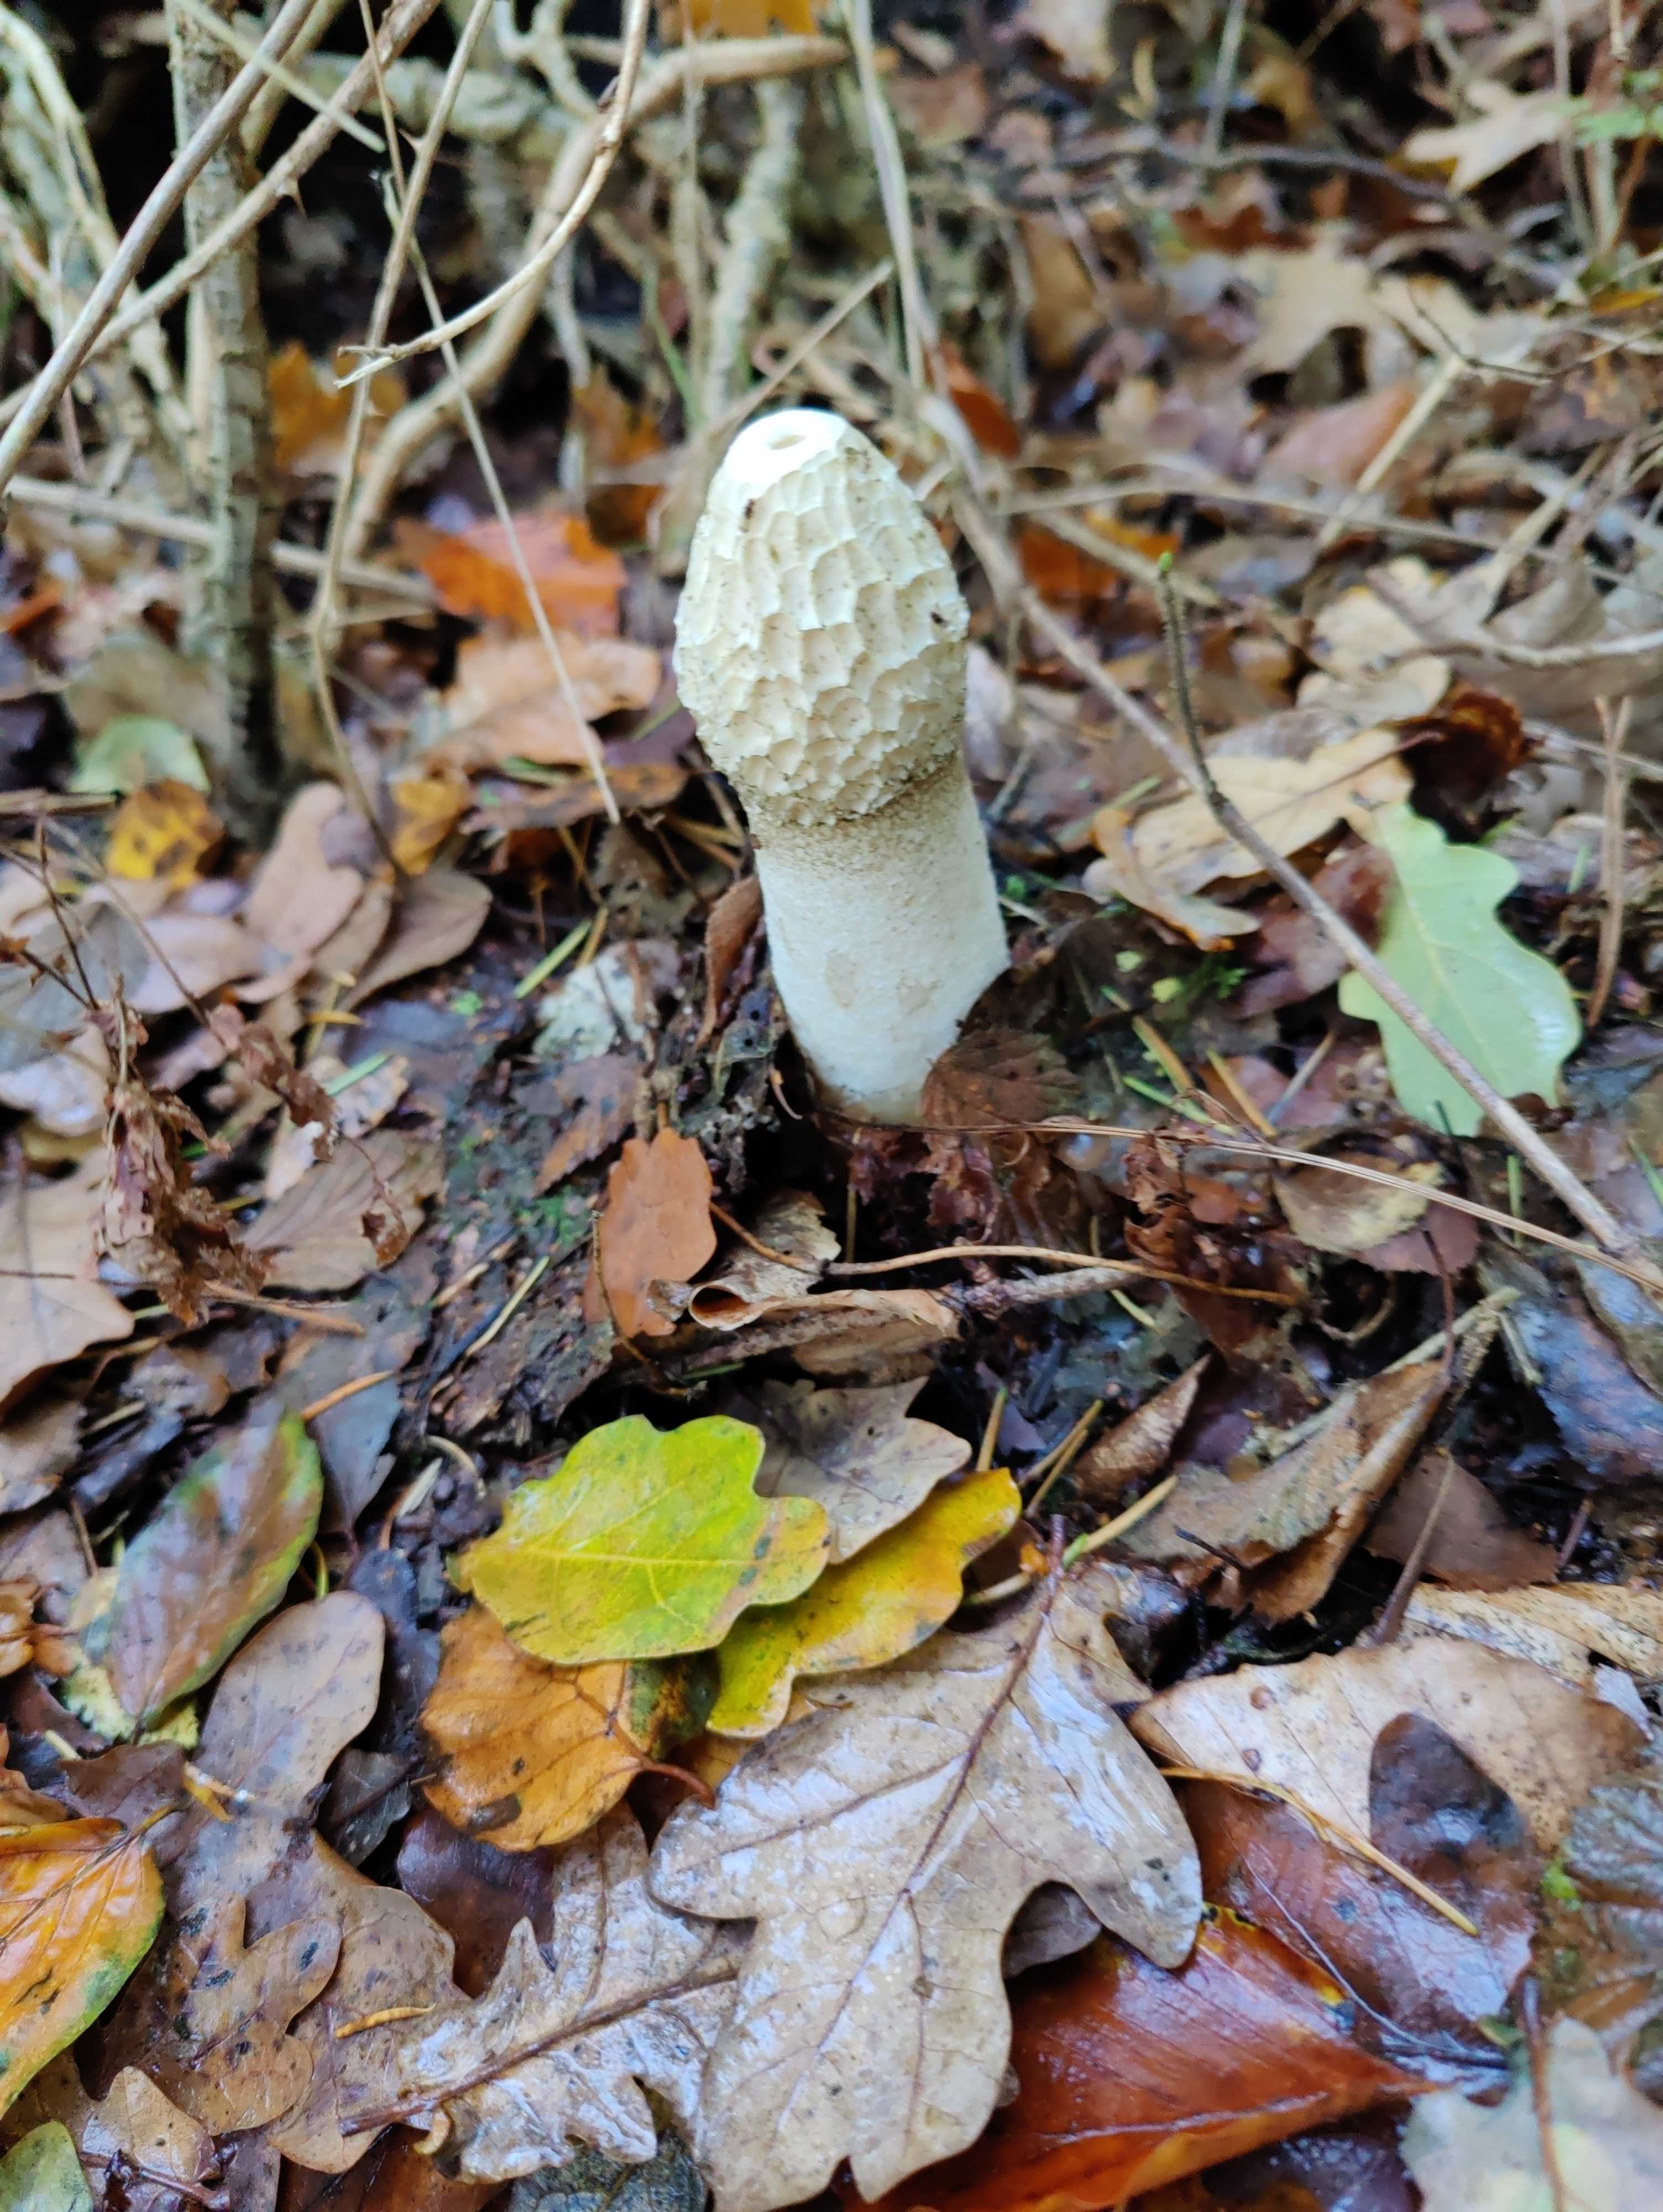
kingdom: Fungi
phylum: Basidiomycota
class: Agaricomycetes
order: Phallales
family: Phallaceae
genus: Phallus
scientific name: Phallus impudicus
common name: almindelig stinksvamp
